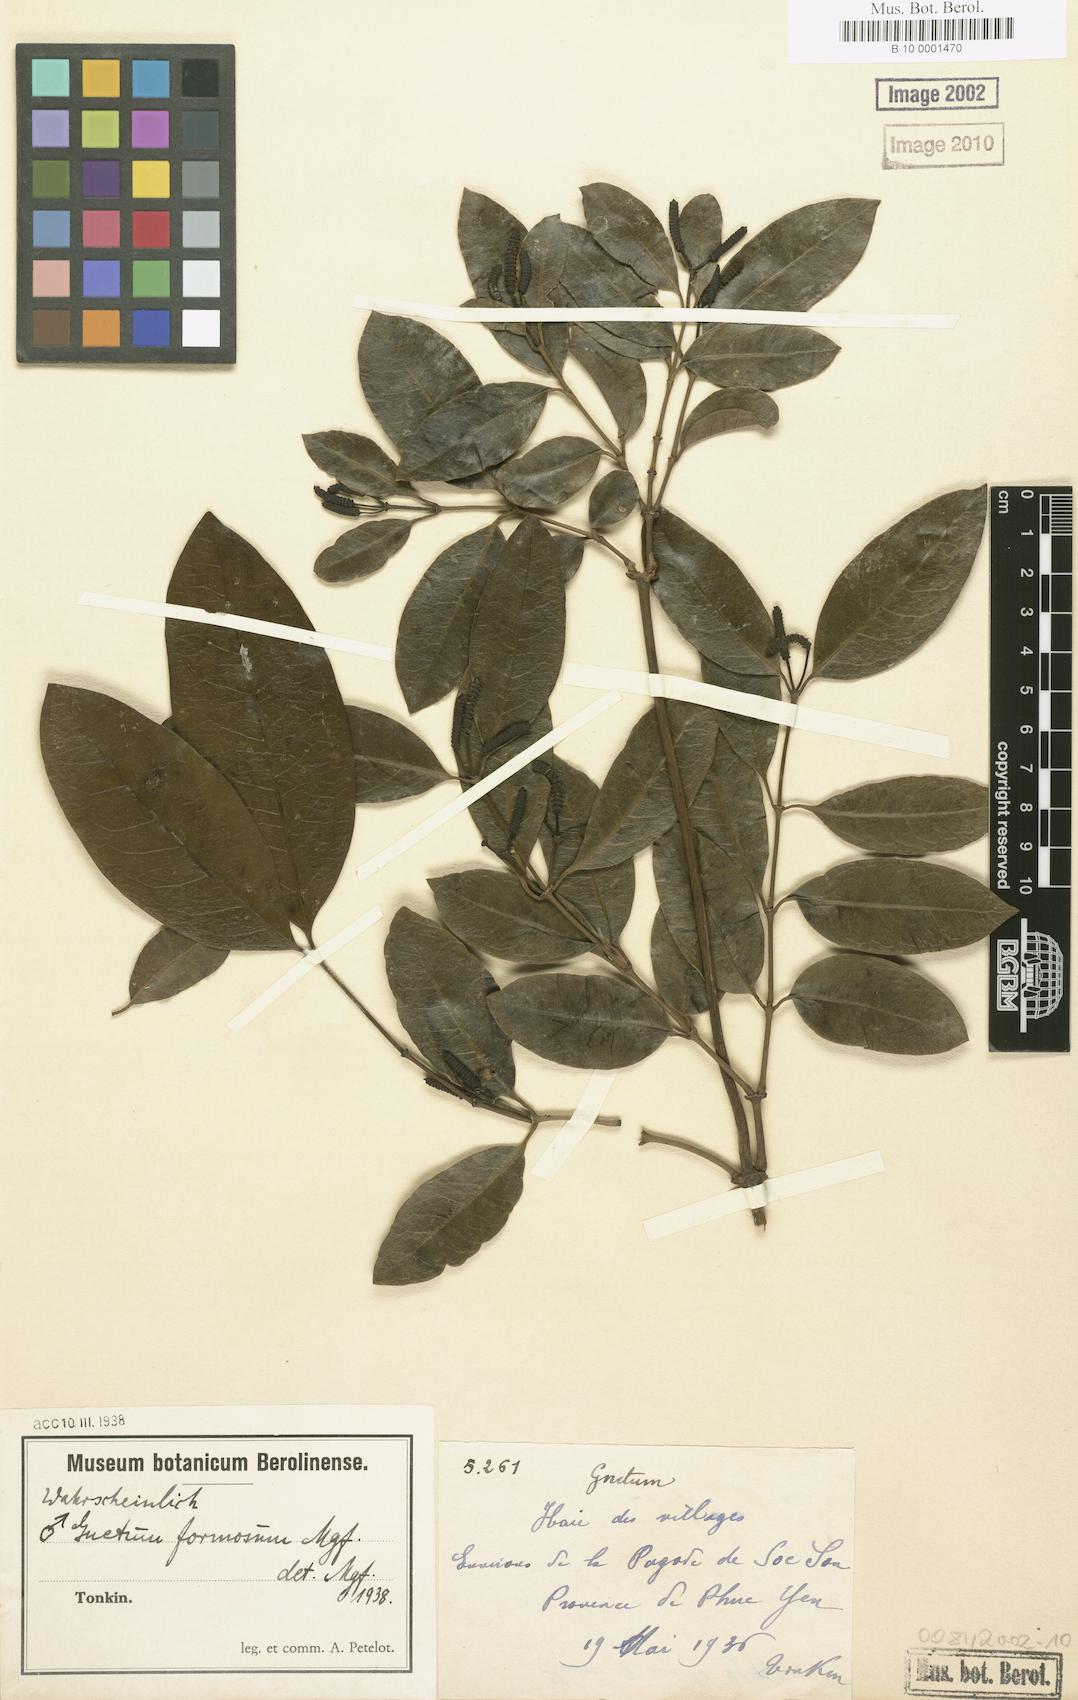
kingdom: Plantae
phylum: Tracheophyta
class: Gnetopsida
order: Gnetales
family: Gnetaceae
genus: Gnetum
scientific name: Gnetum formosum
